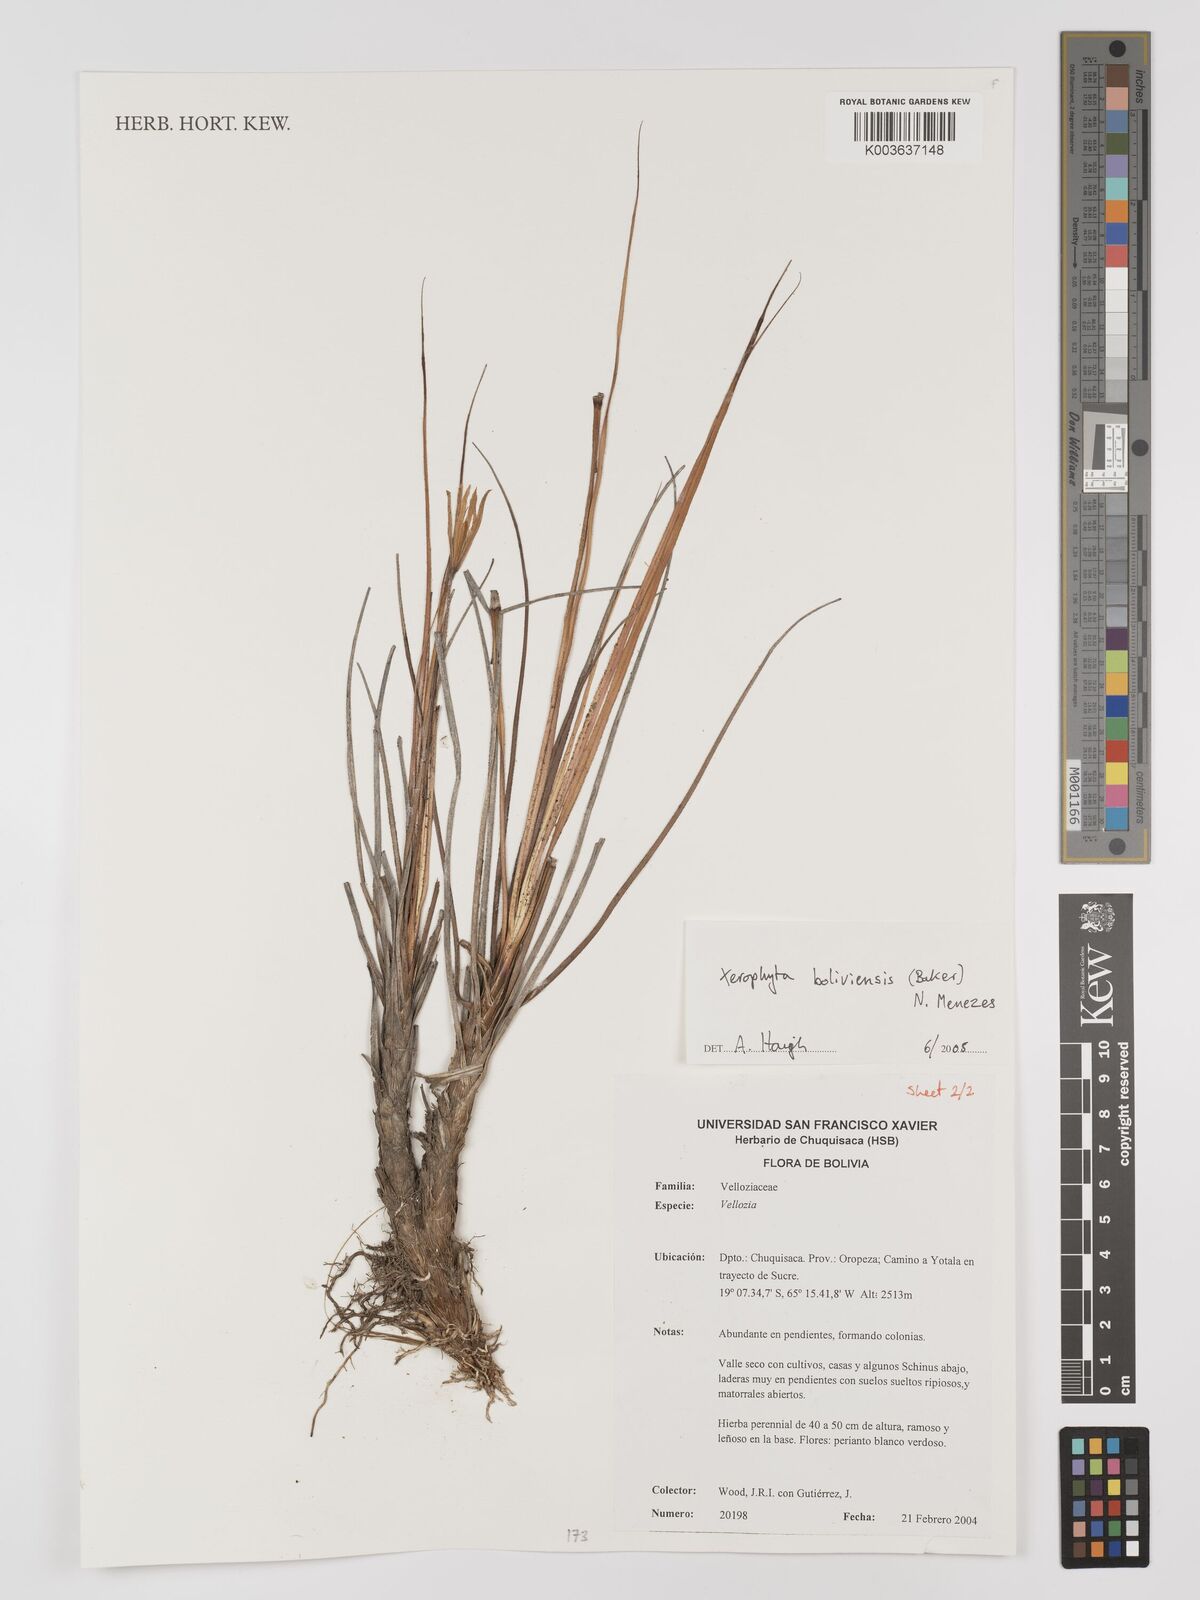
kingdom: Plantae
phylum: Tracheophyta
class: Liliopsida
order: Pandanales
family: Velloziaceae
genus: Barbaceniopsis
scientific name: Barbaceniopsis boliviensis
